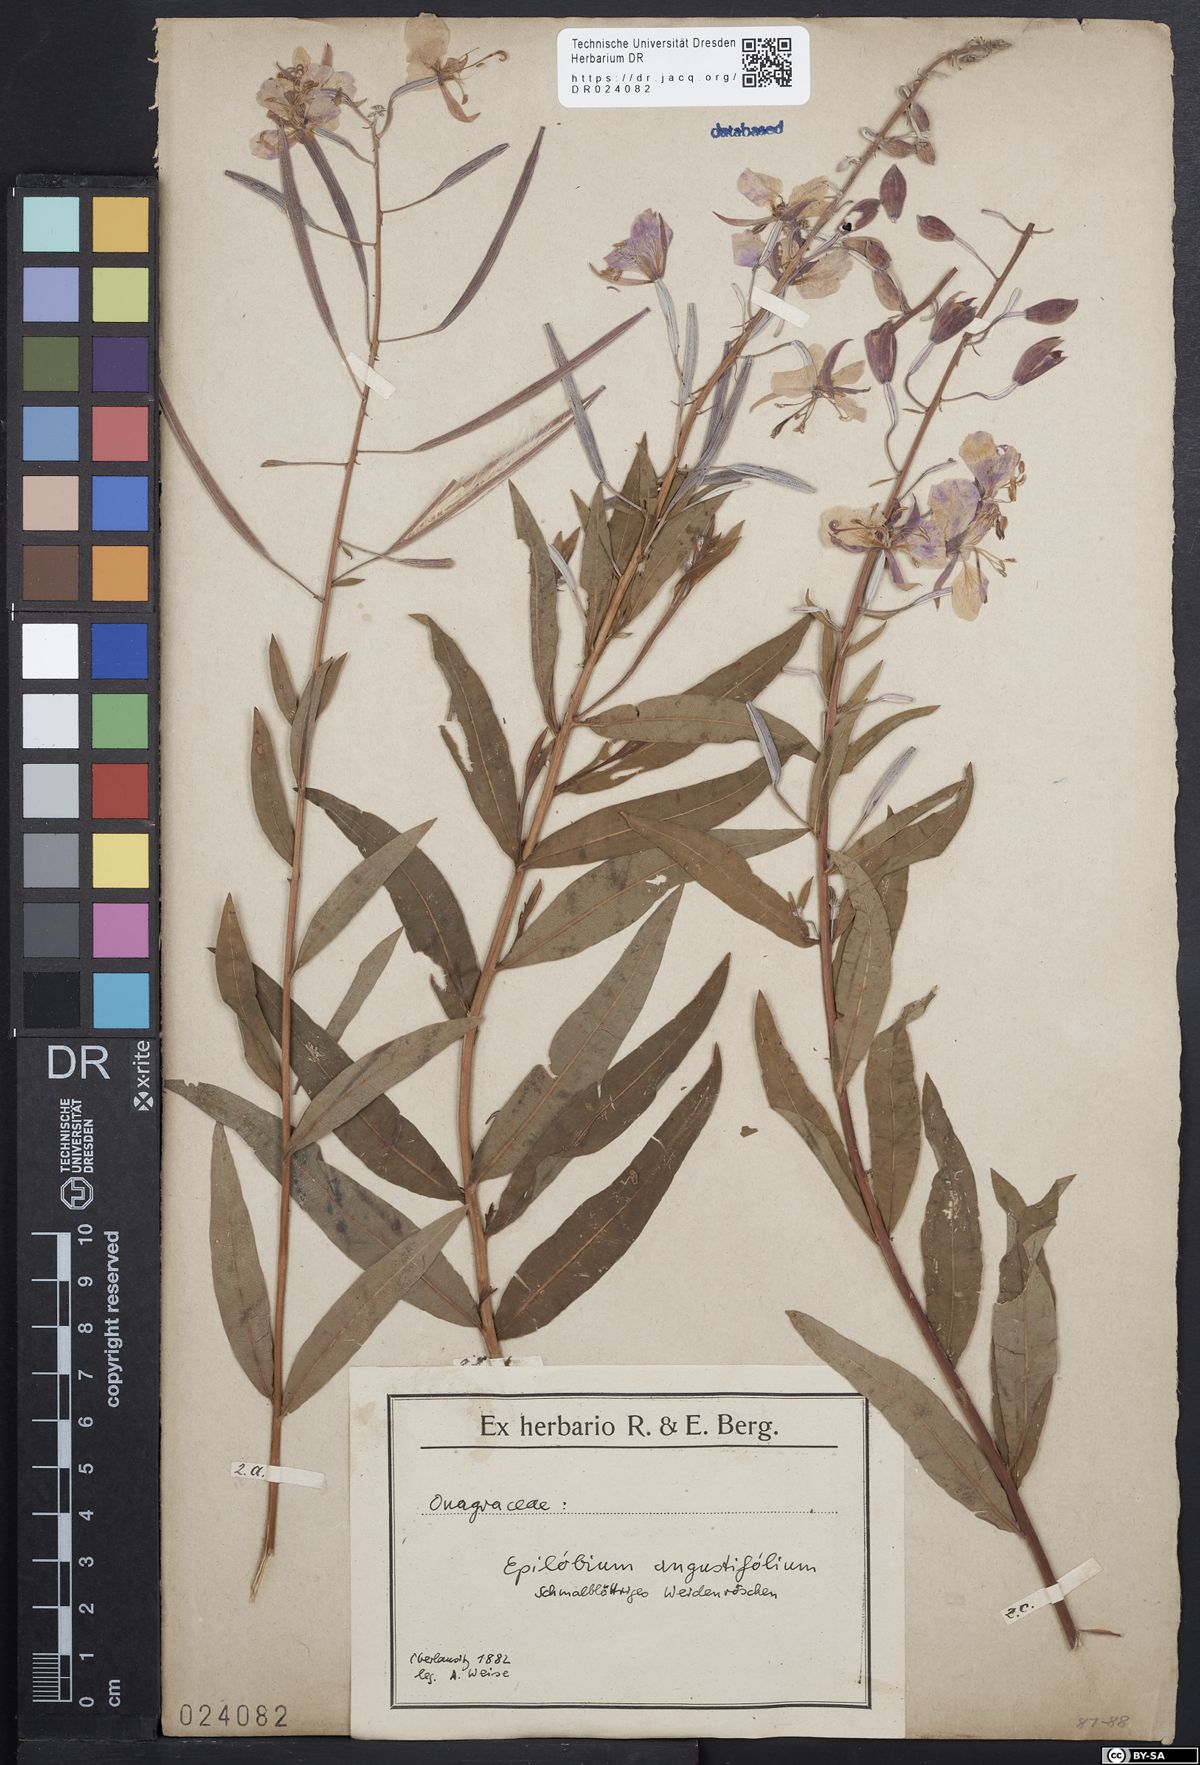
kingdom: Plantae
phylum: Tracheophyta
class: Magnoliopsida
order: Myrtales
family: Onagraceae
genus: Chamaenerion
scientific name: Chamaenerion angustifolium
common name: Fireweed
